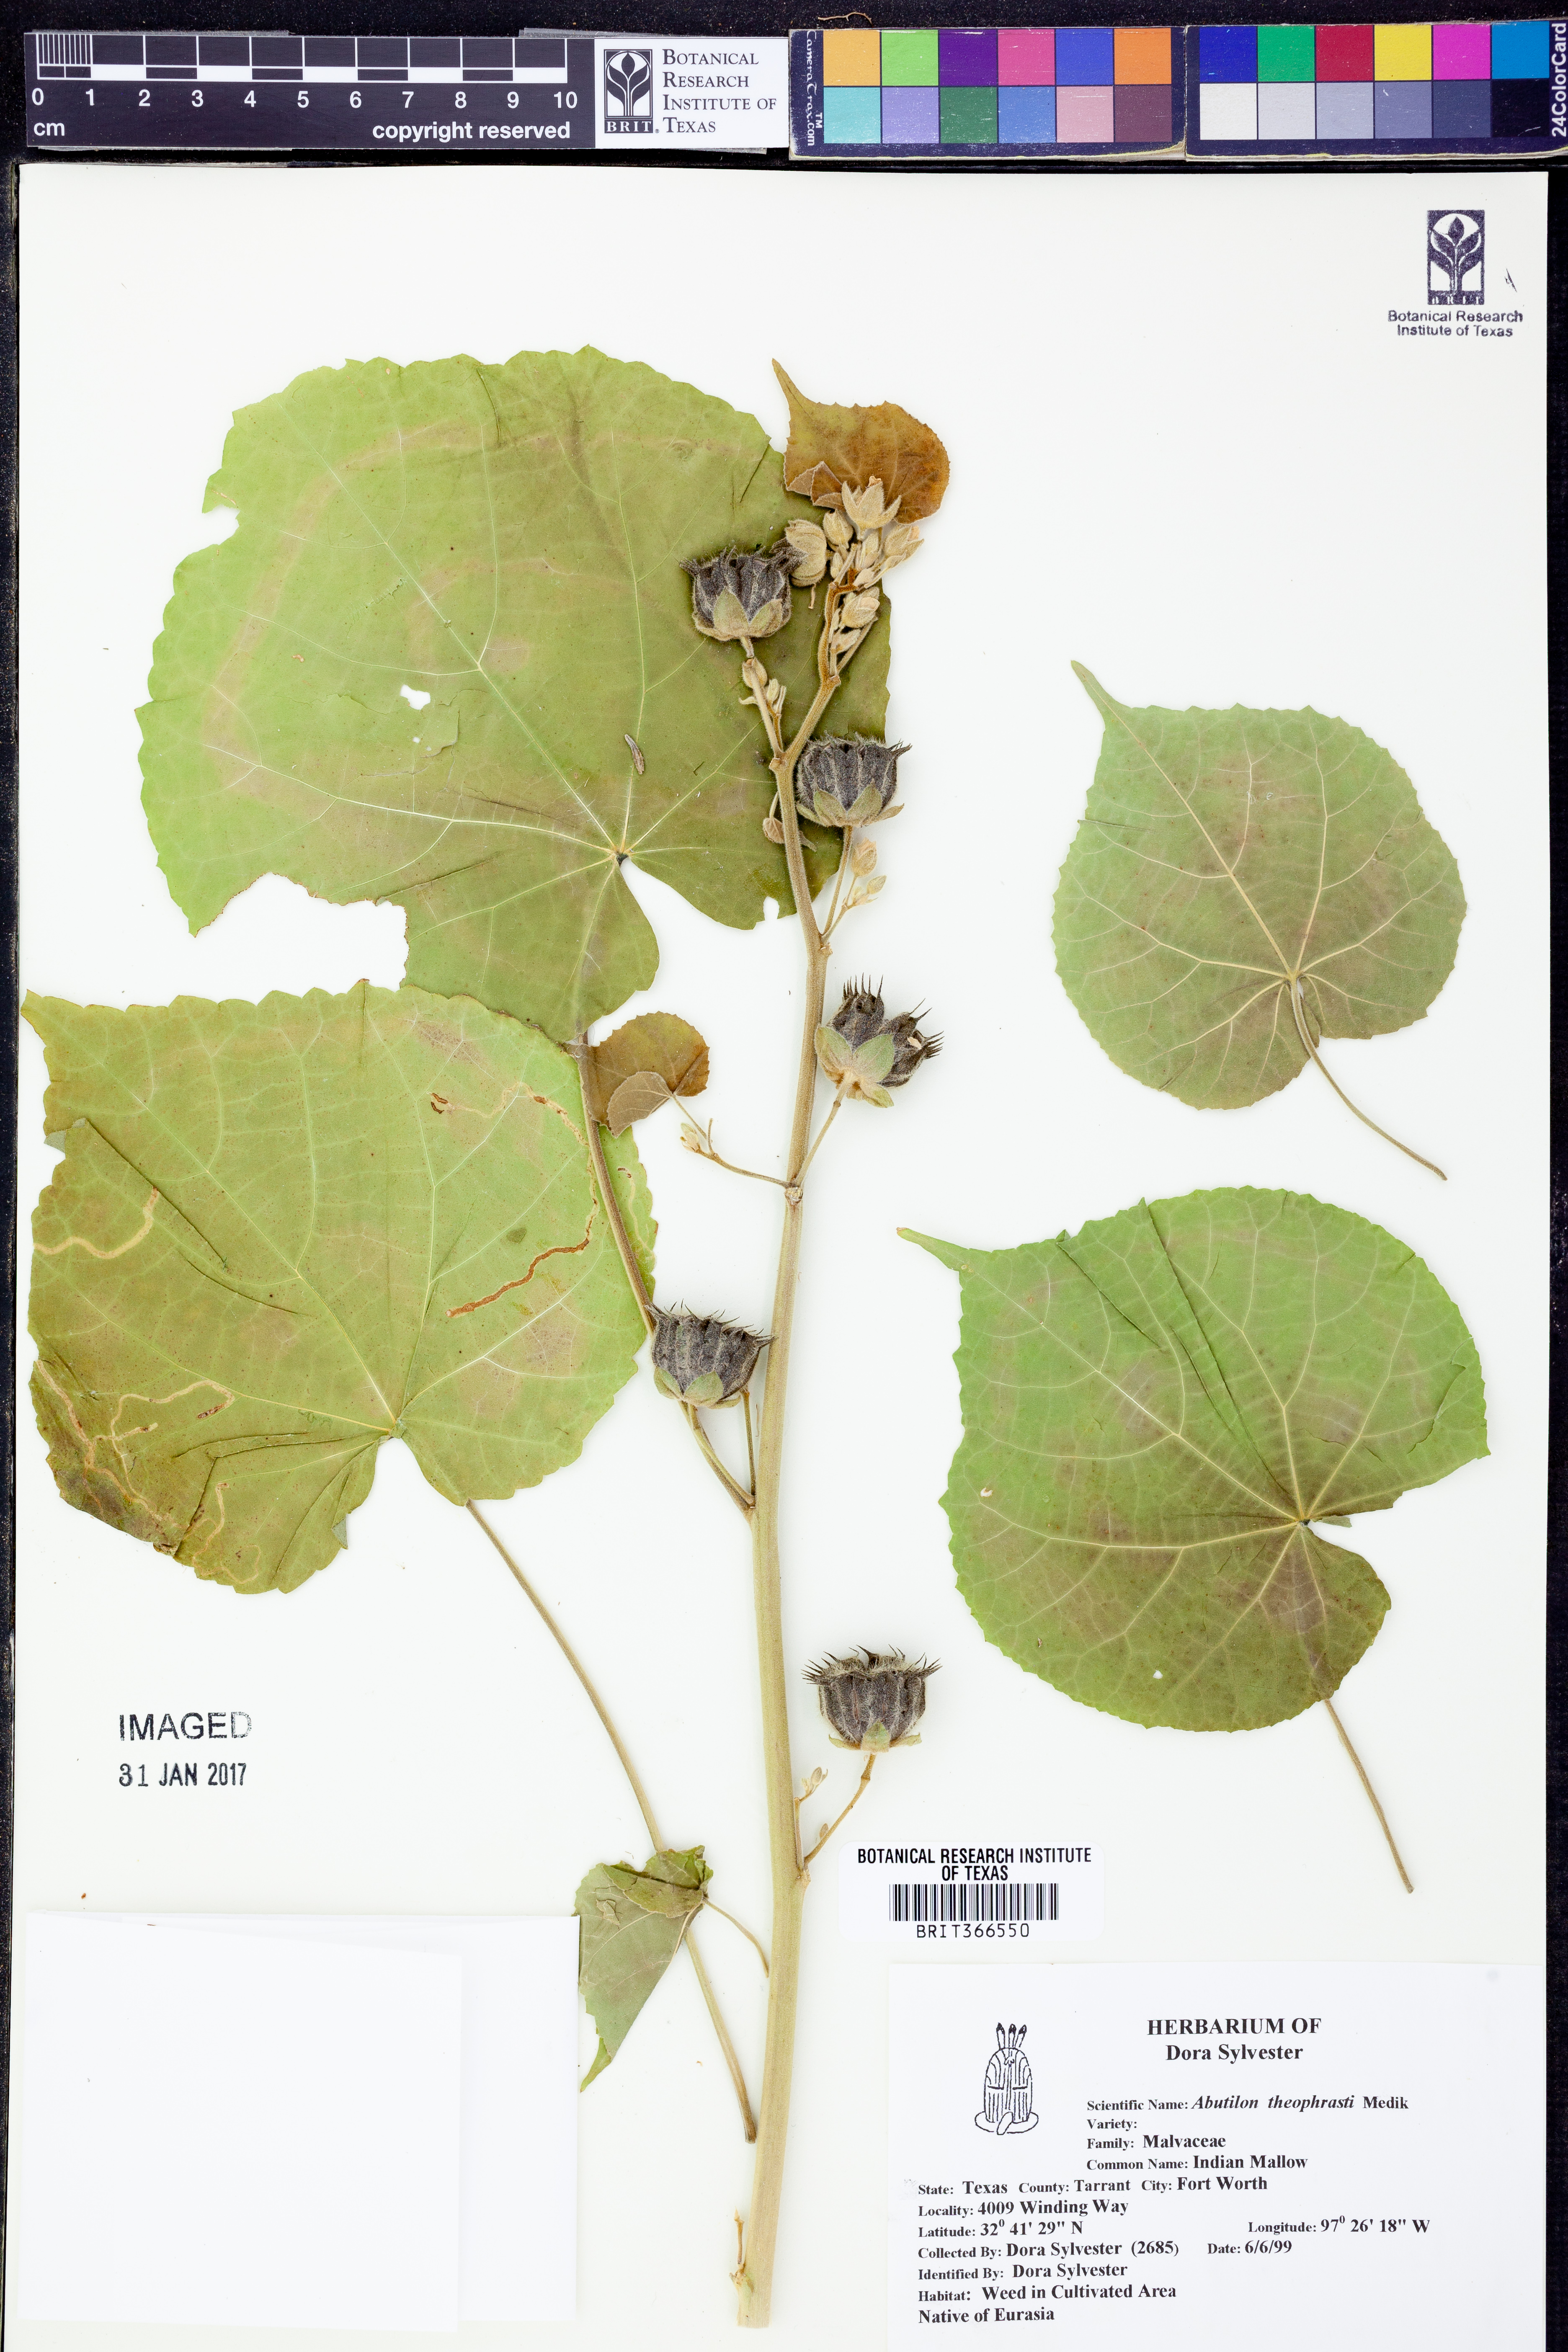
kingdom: Plantae
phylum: Tracheophyta
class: Magnoliopsida
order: Malvales
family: Malvaceae
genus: Abutilon
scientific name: Abutilon theophrasti
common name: Velvetleaf
